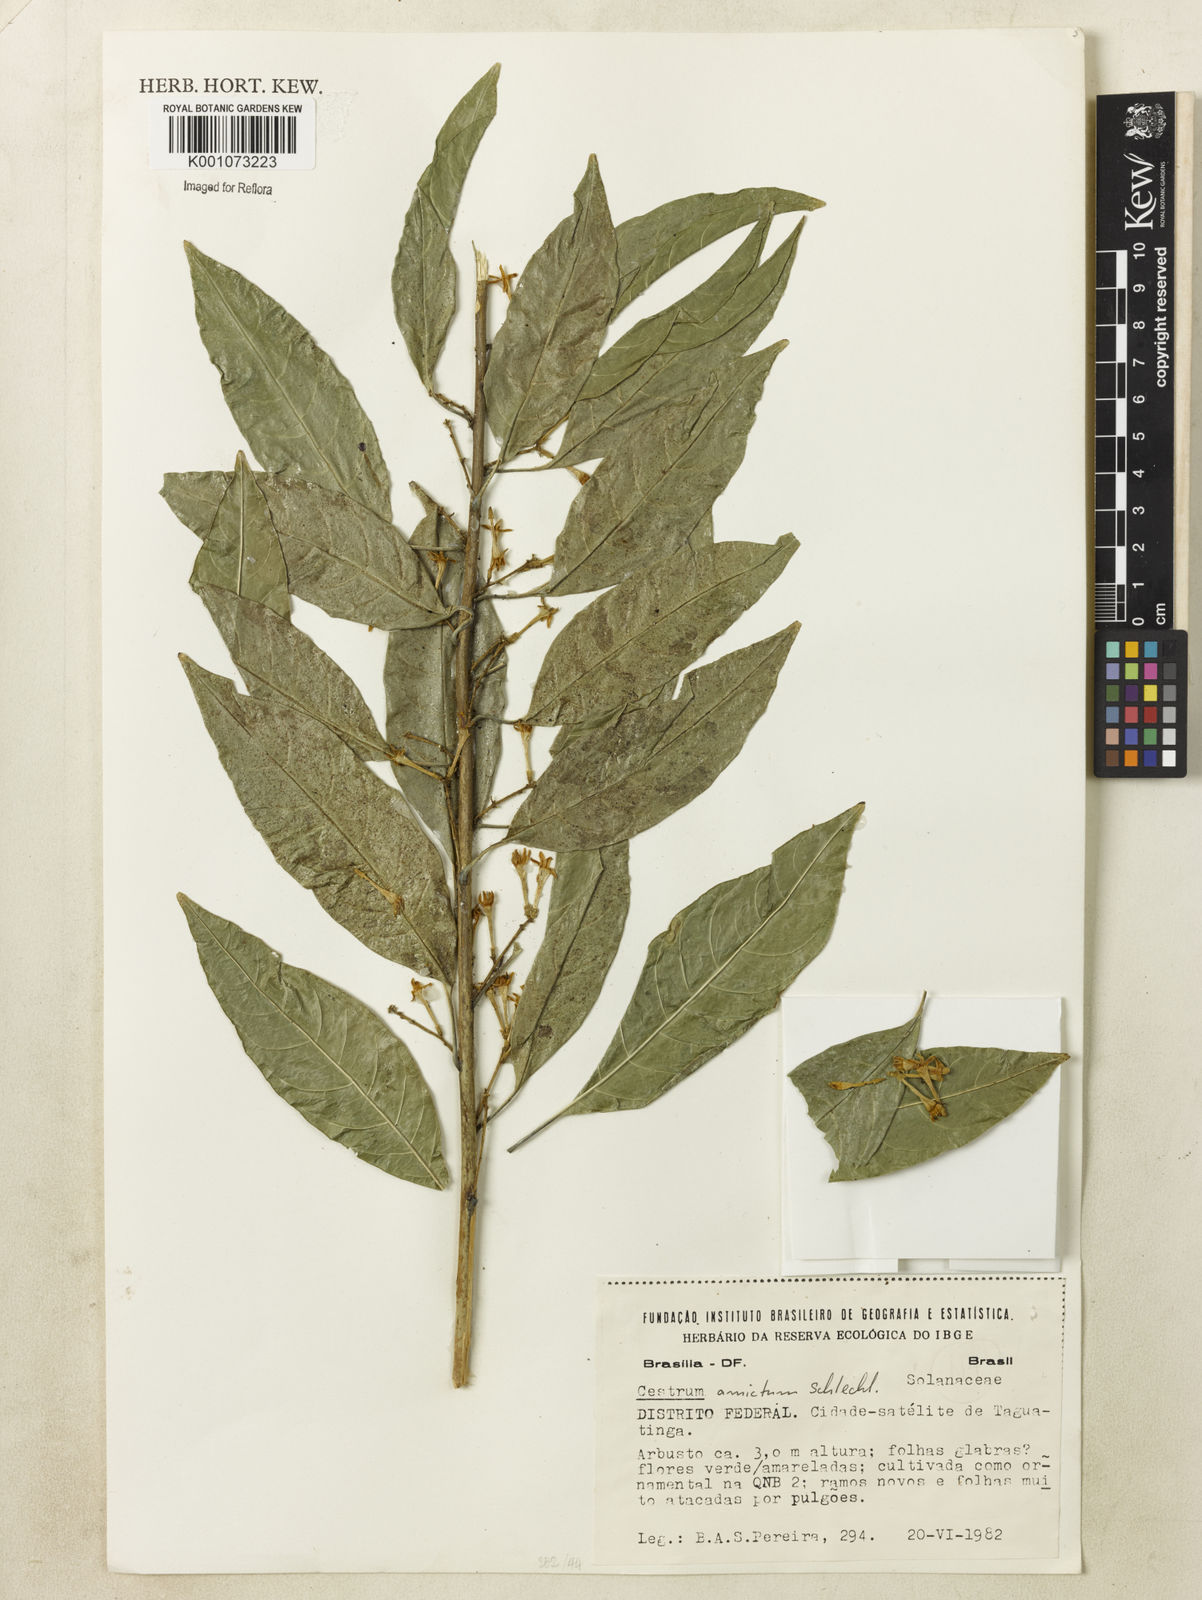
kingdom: Plantae
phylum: Tracheophyta
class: Magnoliopsida
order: Solanales
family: Solanaceae
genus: Cestrum
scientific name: Cestrum
